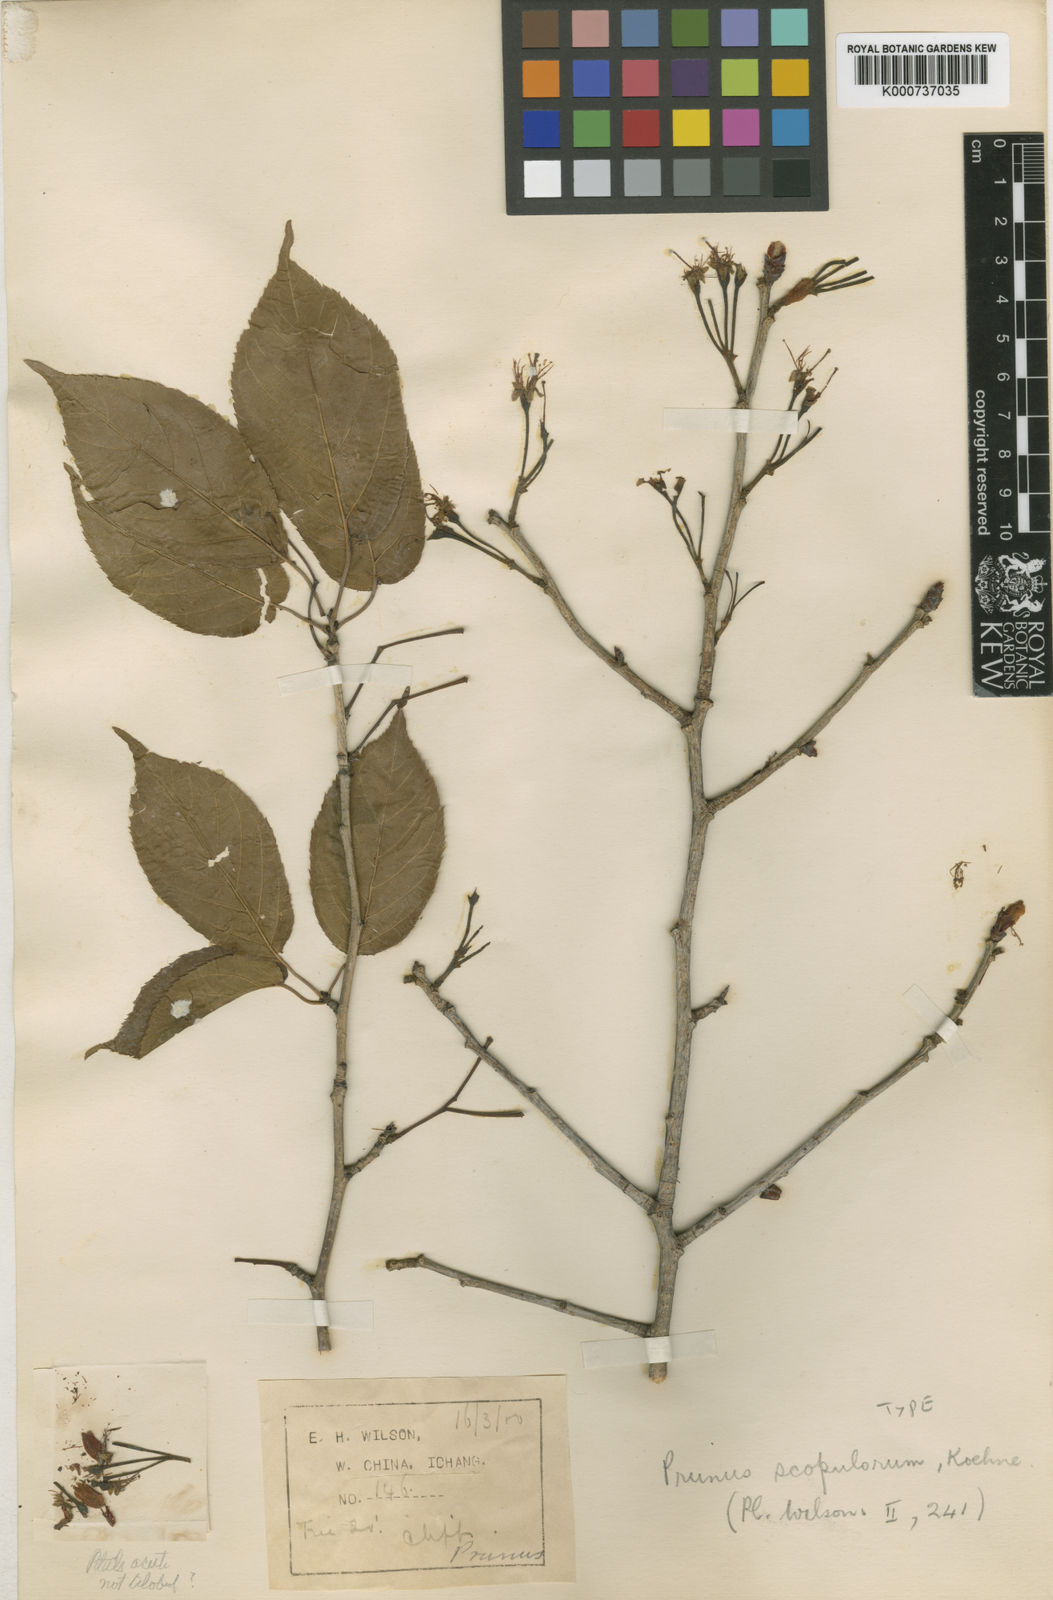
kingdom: Plantae
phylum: Tracheophyta
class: Magnoliopsida
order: Rosales
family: Rosaceae
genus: Prunus
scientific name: Prunus pseudocerasus
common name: Ying tao cherry
